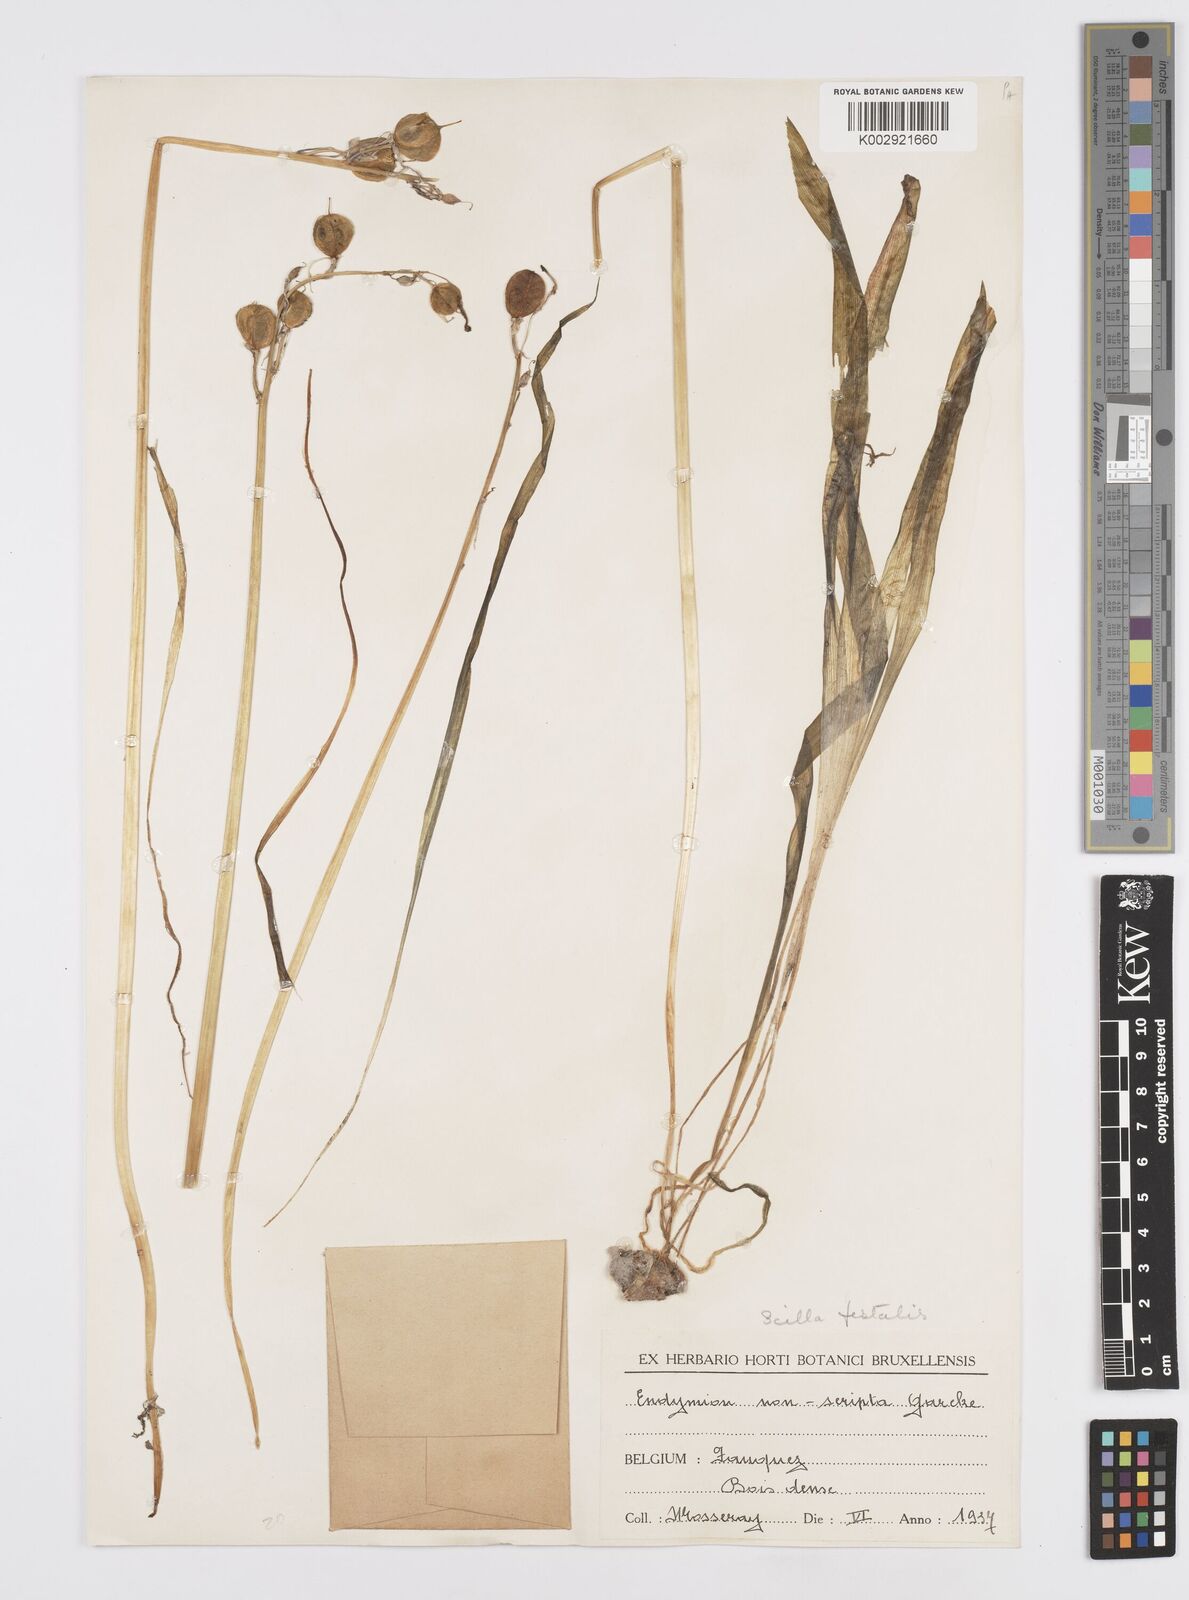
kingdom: Plantae
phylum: Tracheophyta
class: Liliopsida
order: Asparagales
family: Asparagaceae
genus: Hyacinthoides
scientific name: Hyacinthoides non-scripta
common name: Bluebell
